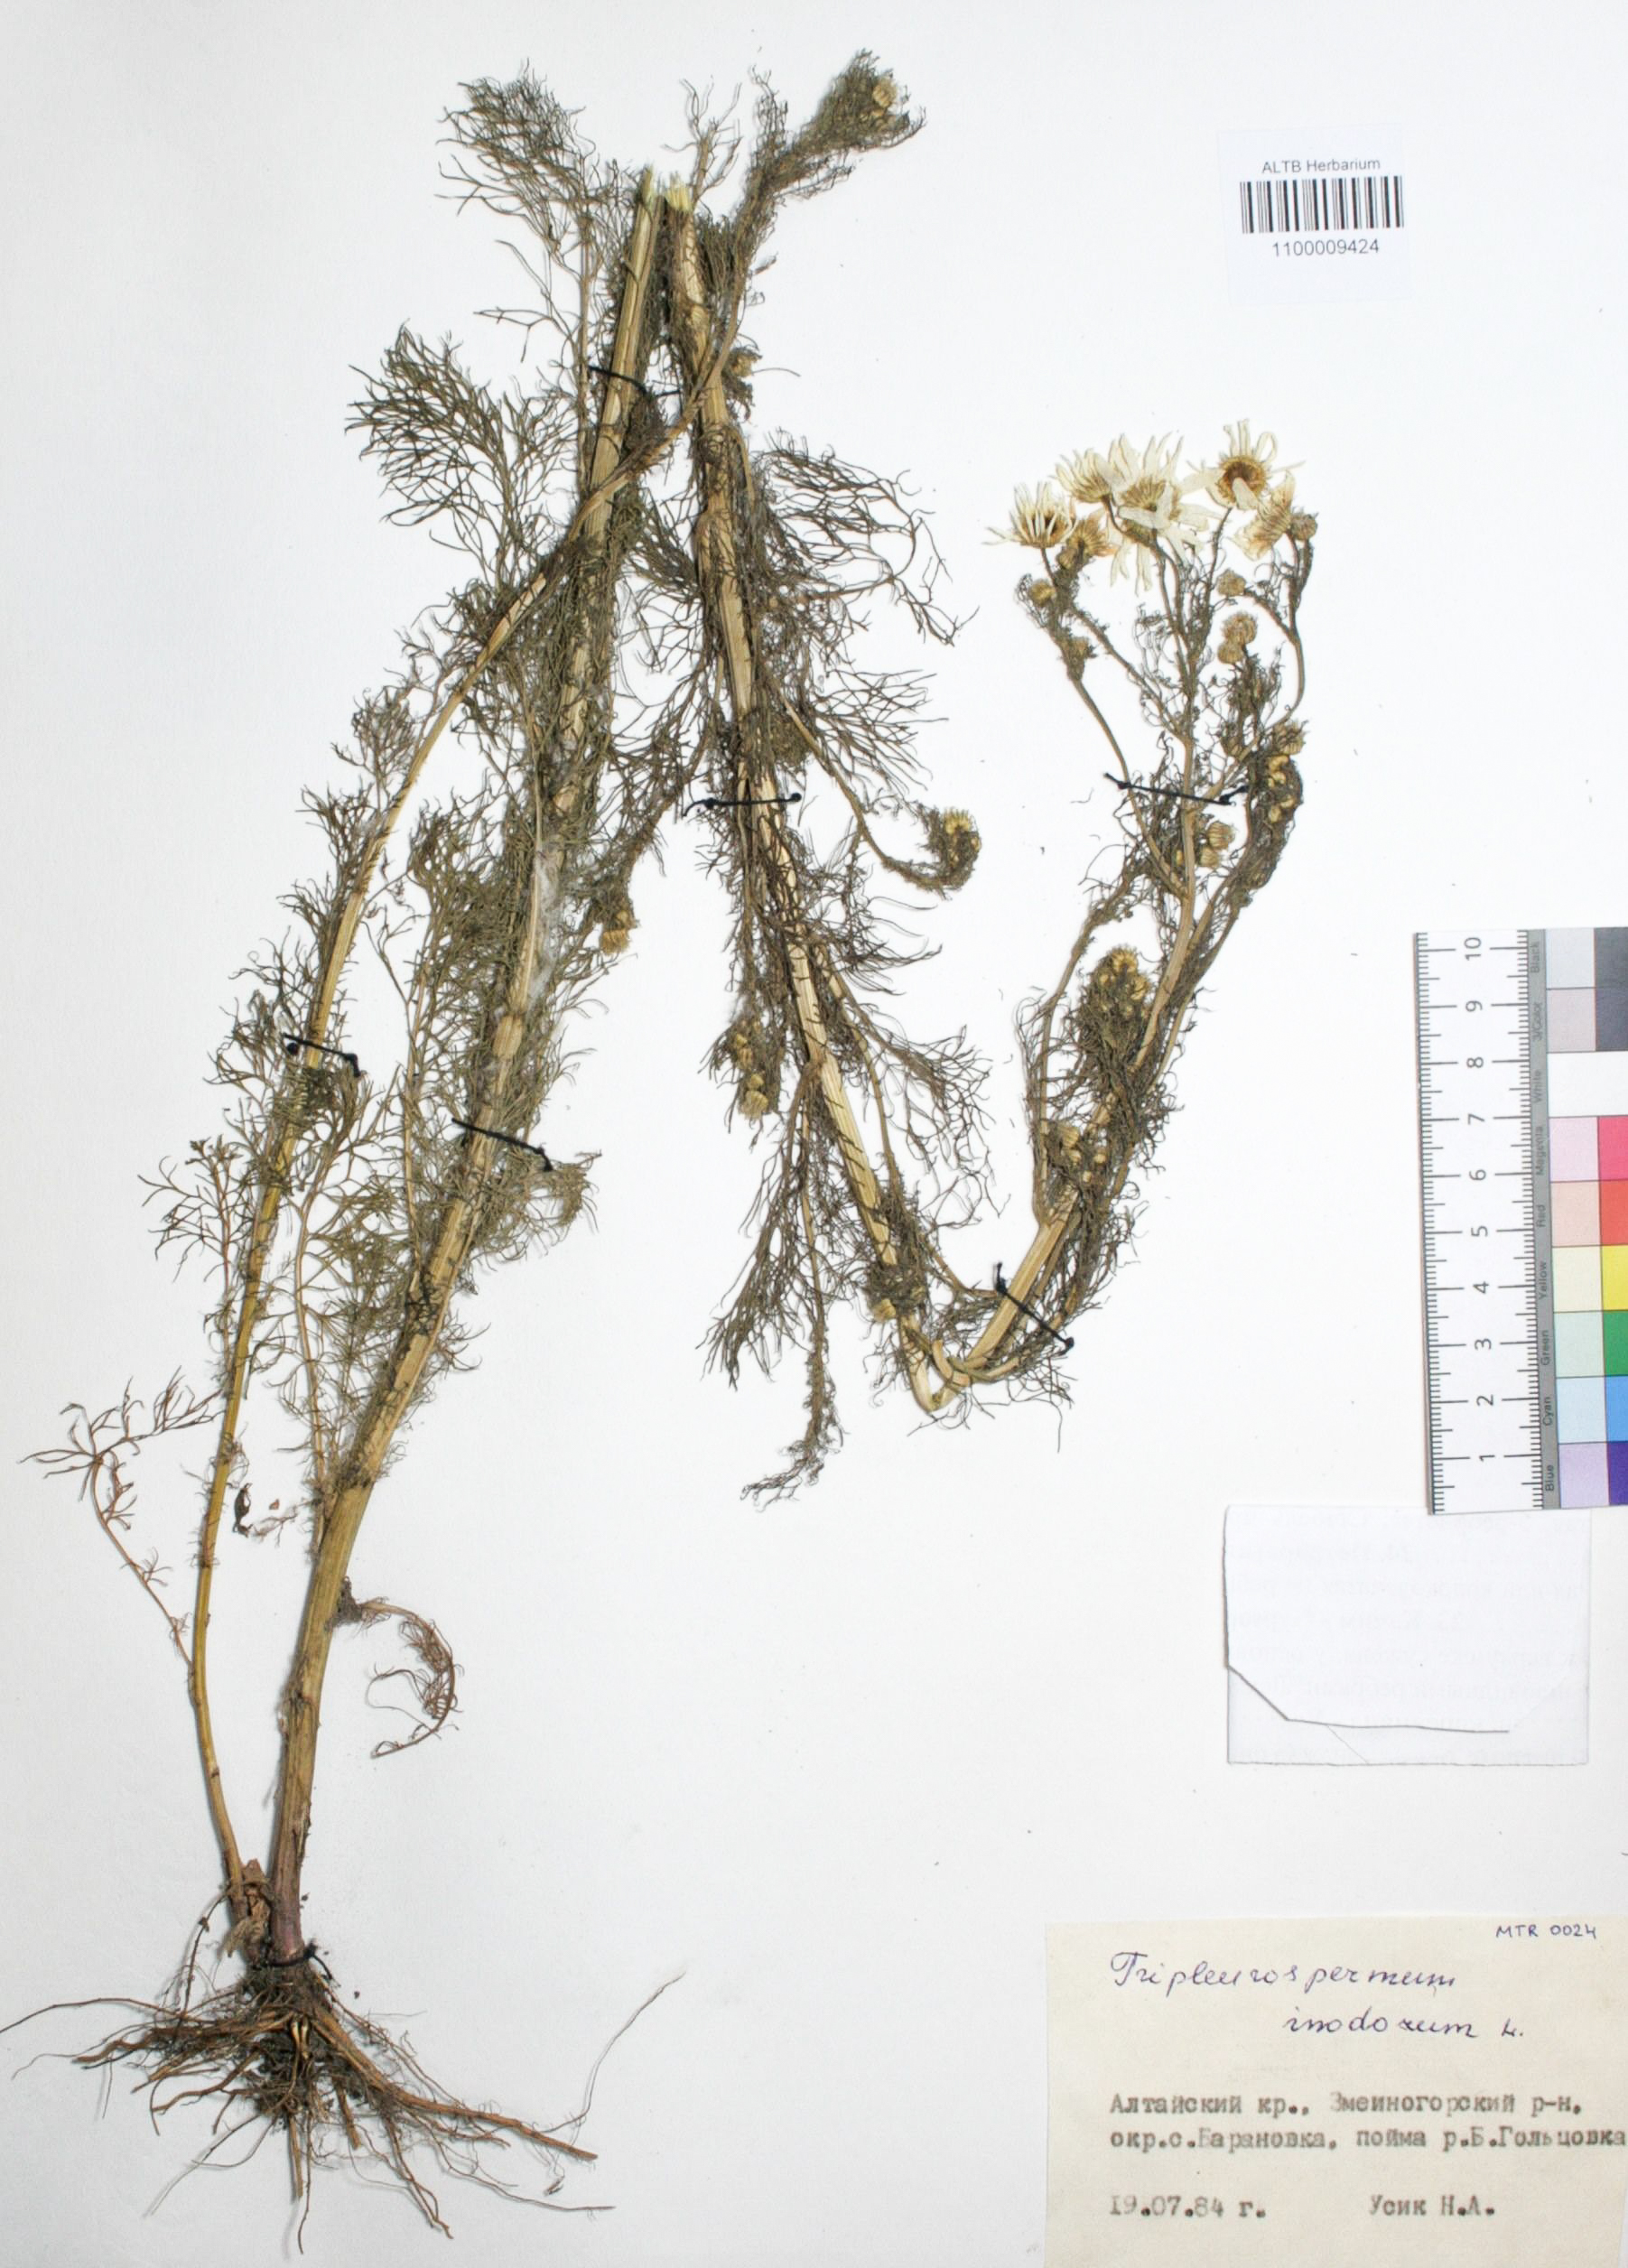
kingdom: Plantae
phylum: Tracheophyta
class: Magnoliopsida
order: Asterales
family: Asteraceae
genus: Tripleurospermum
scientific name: Tripleurospermum inodorum
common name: Scentless mayweed
